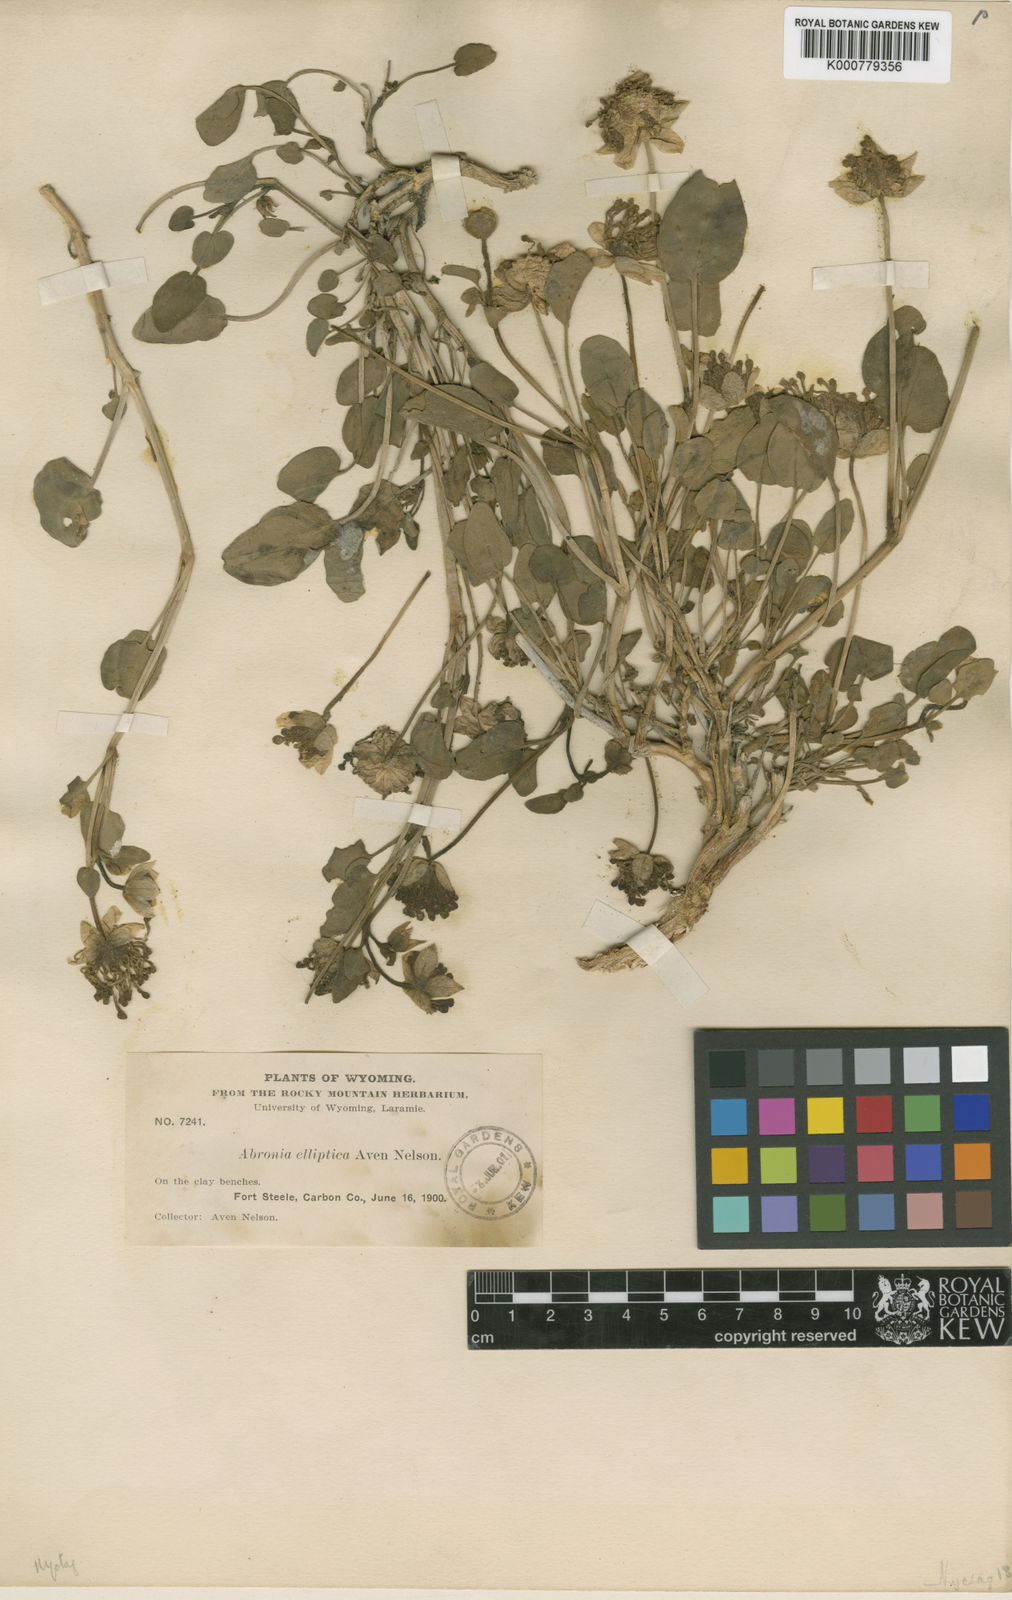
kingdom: Plantae
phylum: Tracheophyta
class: Magnoliopsida
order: Caryophyllales
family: Nyctaginaceae
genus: Abronia
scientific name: Abronia elliptica
